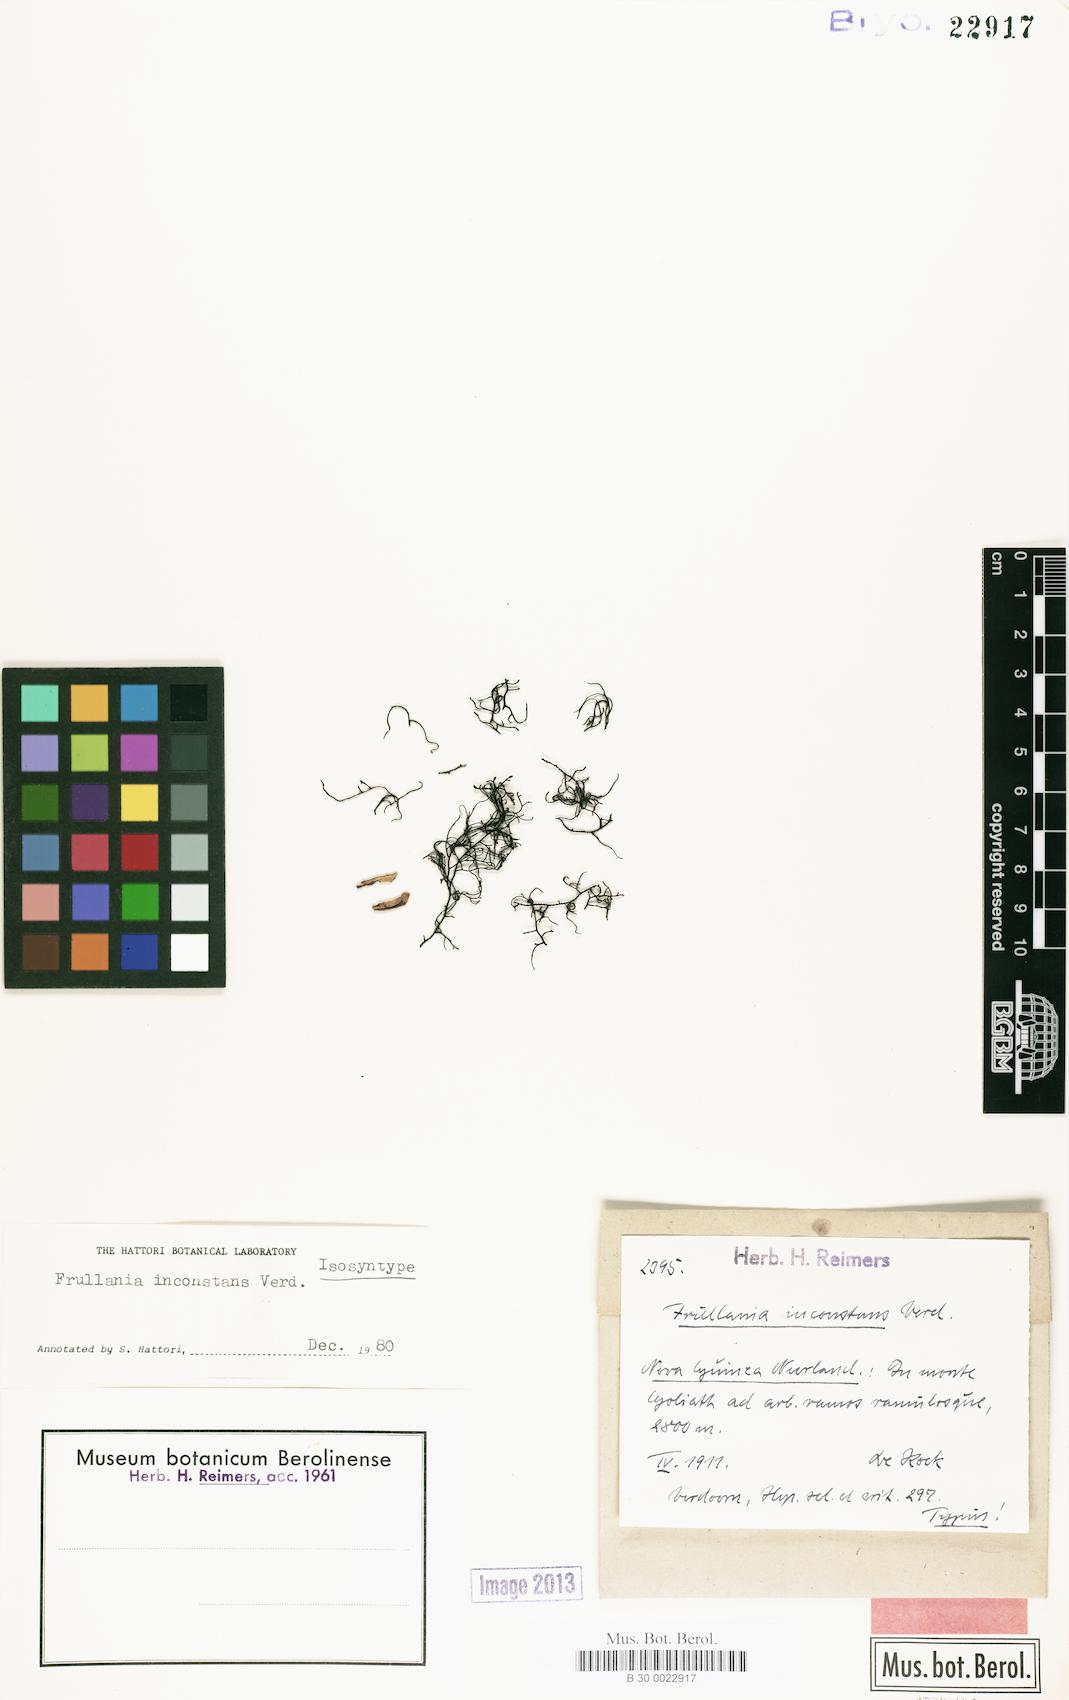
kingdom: Plantae
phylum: Marchantiophyta
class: Jungermanniopsida
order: Porellales
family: Frullaniaceae
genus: Frullania
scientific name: Frullania inconstans
